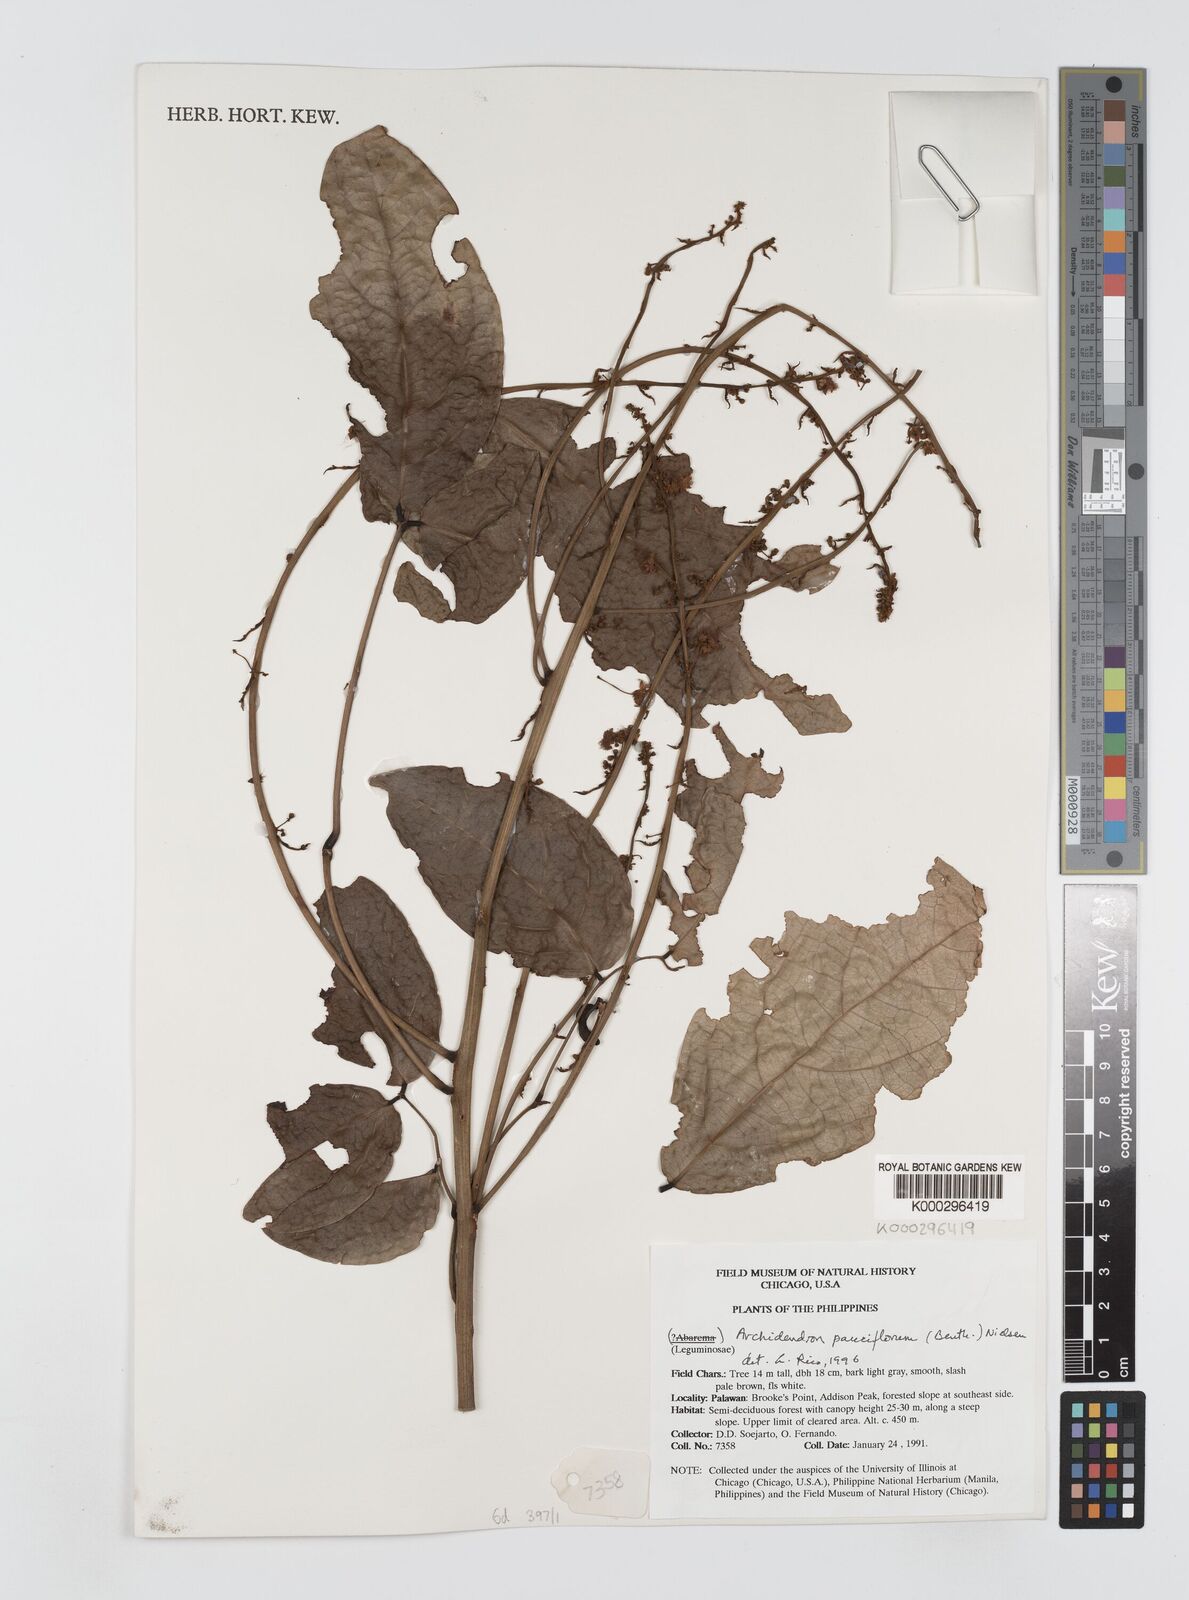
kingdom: Plantae
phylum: Tracheophyta
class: Magnoliopsida
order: Fabales
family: Fabaceae
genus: Archidendron
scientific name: Archidendron pauciflorum
